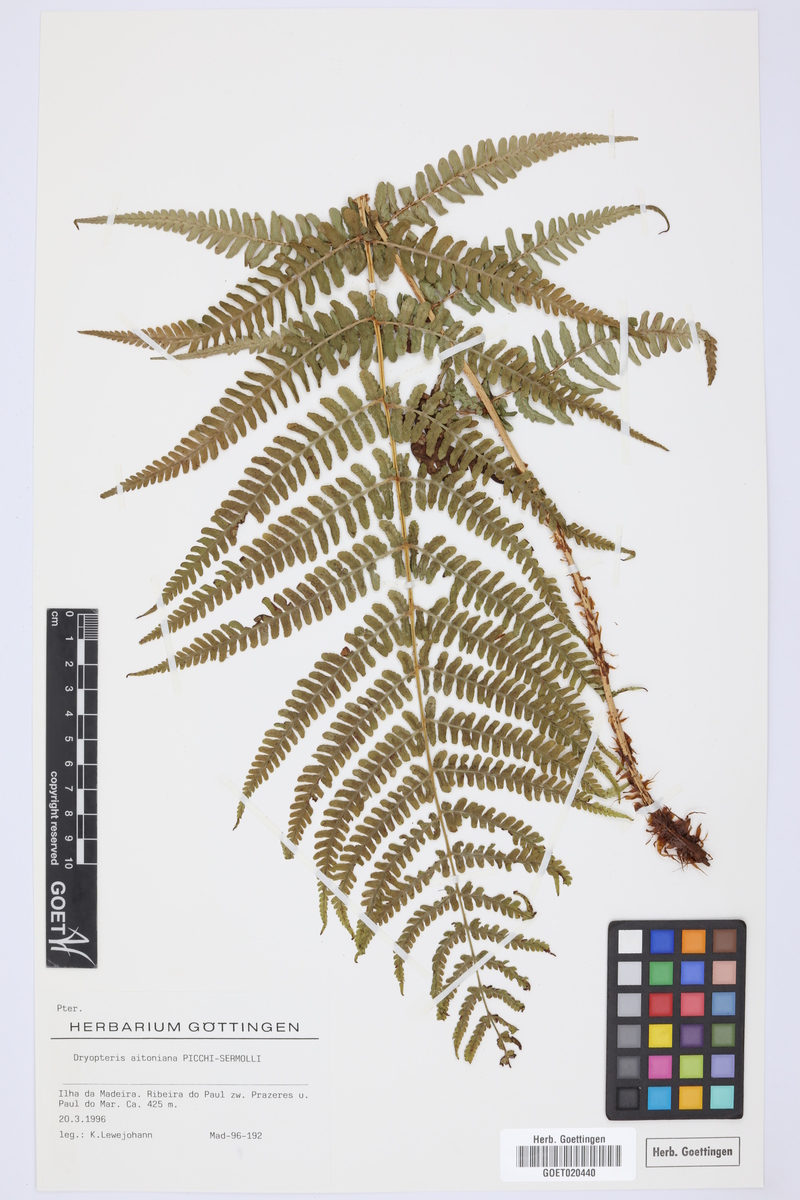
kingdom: Plantae
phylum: Tracheophyta
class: Polypodiopsida
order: Polypodiales
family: Dryopteridaceae
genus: Dryopteris
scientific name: Dryopteris aitoniana
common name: Aiton's buckler-fern
